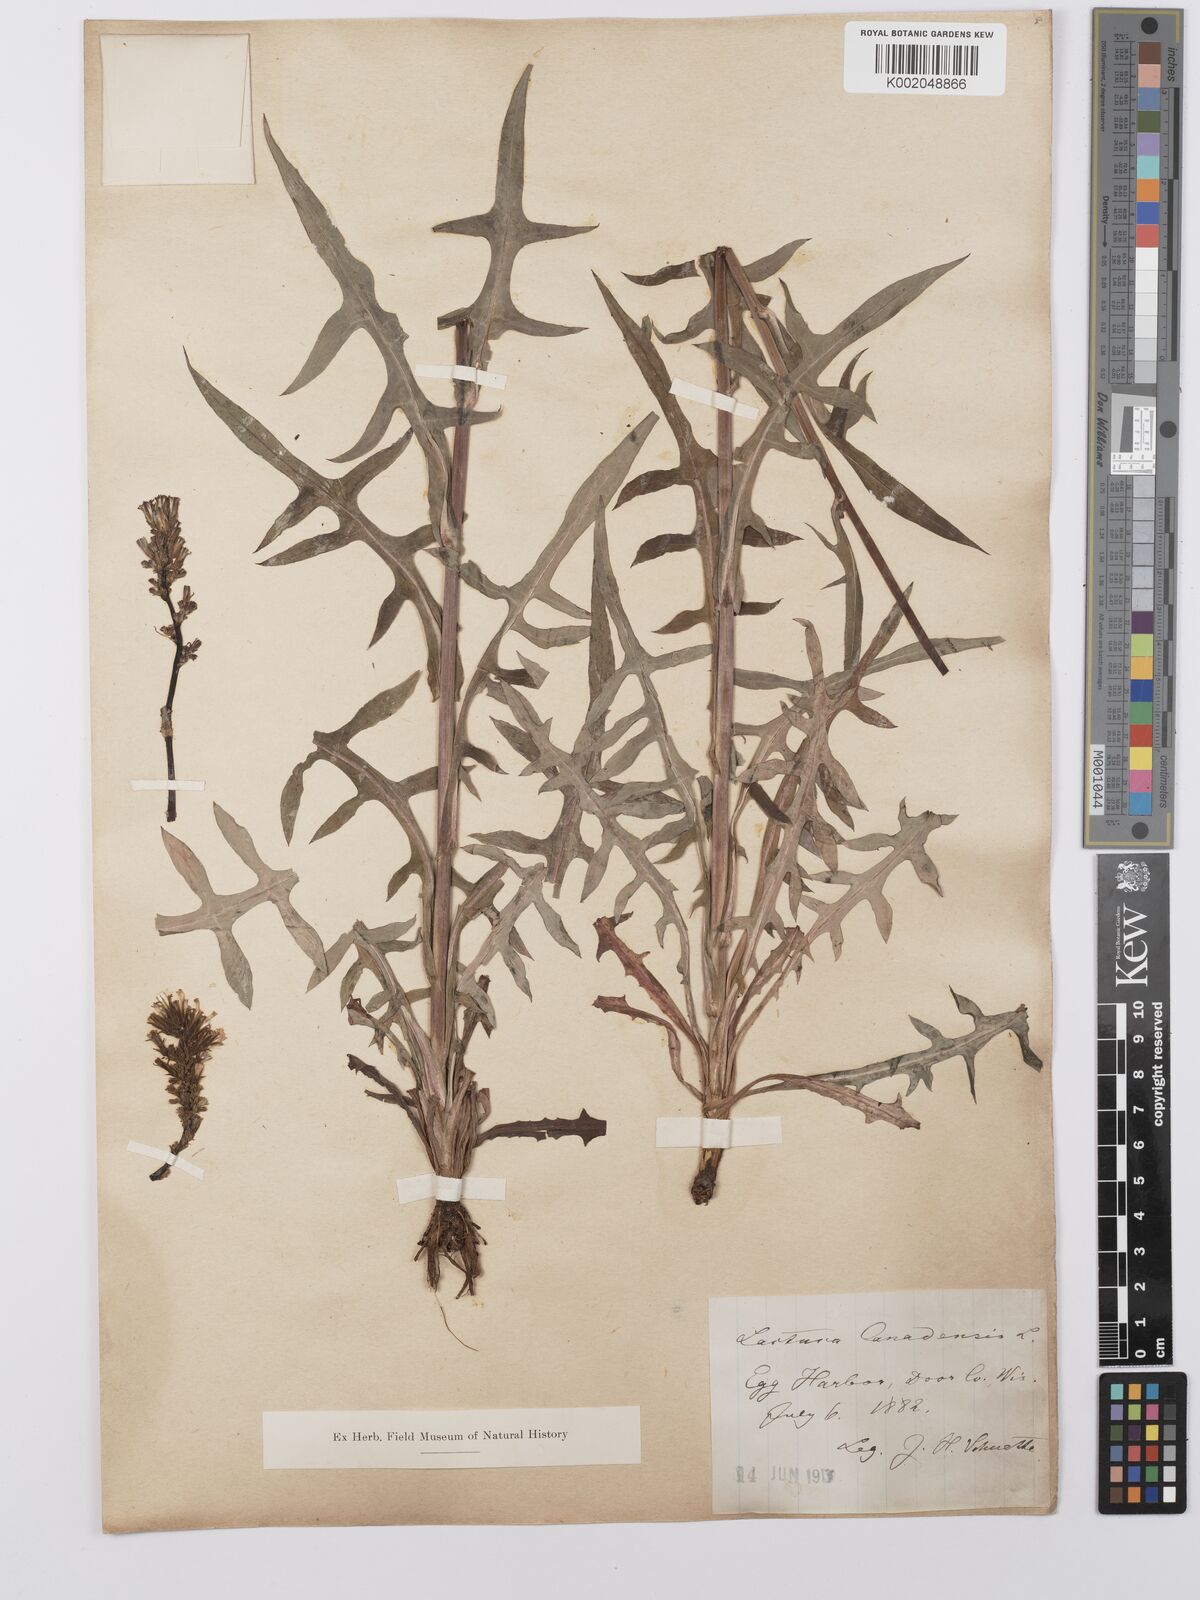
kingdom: Plantae
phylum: Tracheophyta
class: Magnoliopsida
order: Asterales
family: Asteraceae
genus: Lactuca
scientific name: Lactuca canadensis
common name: Canada lettuce
